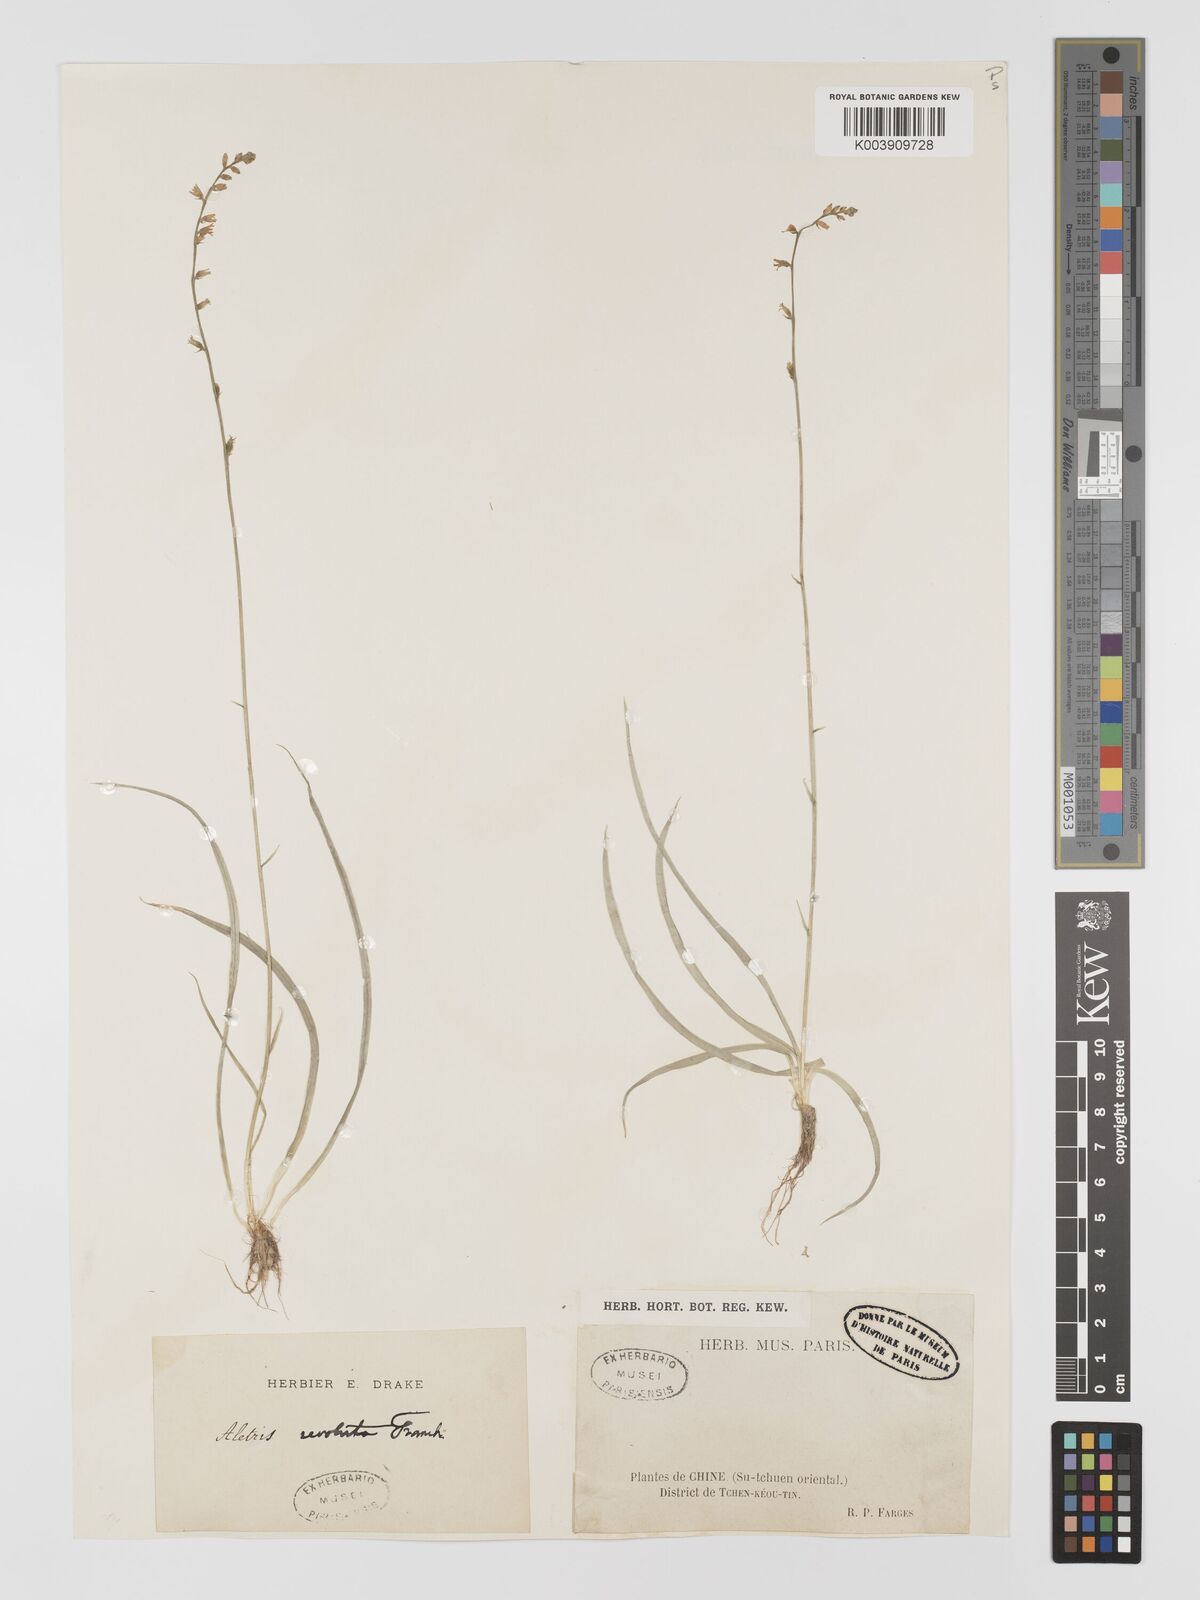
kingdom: Plantae
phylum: Tracheophyta
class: Liliopsida
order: Dioscoreales
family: Nartheciaceae
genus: Aletris
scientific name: Aletris laxiflora
